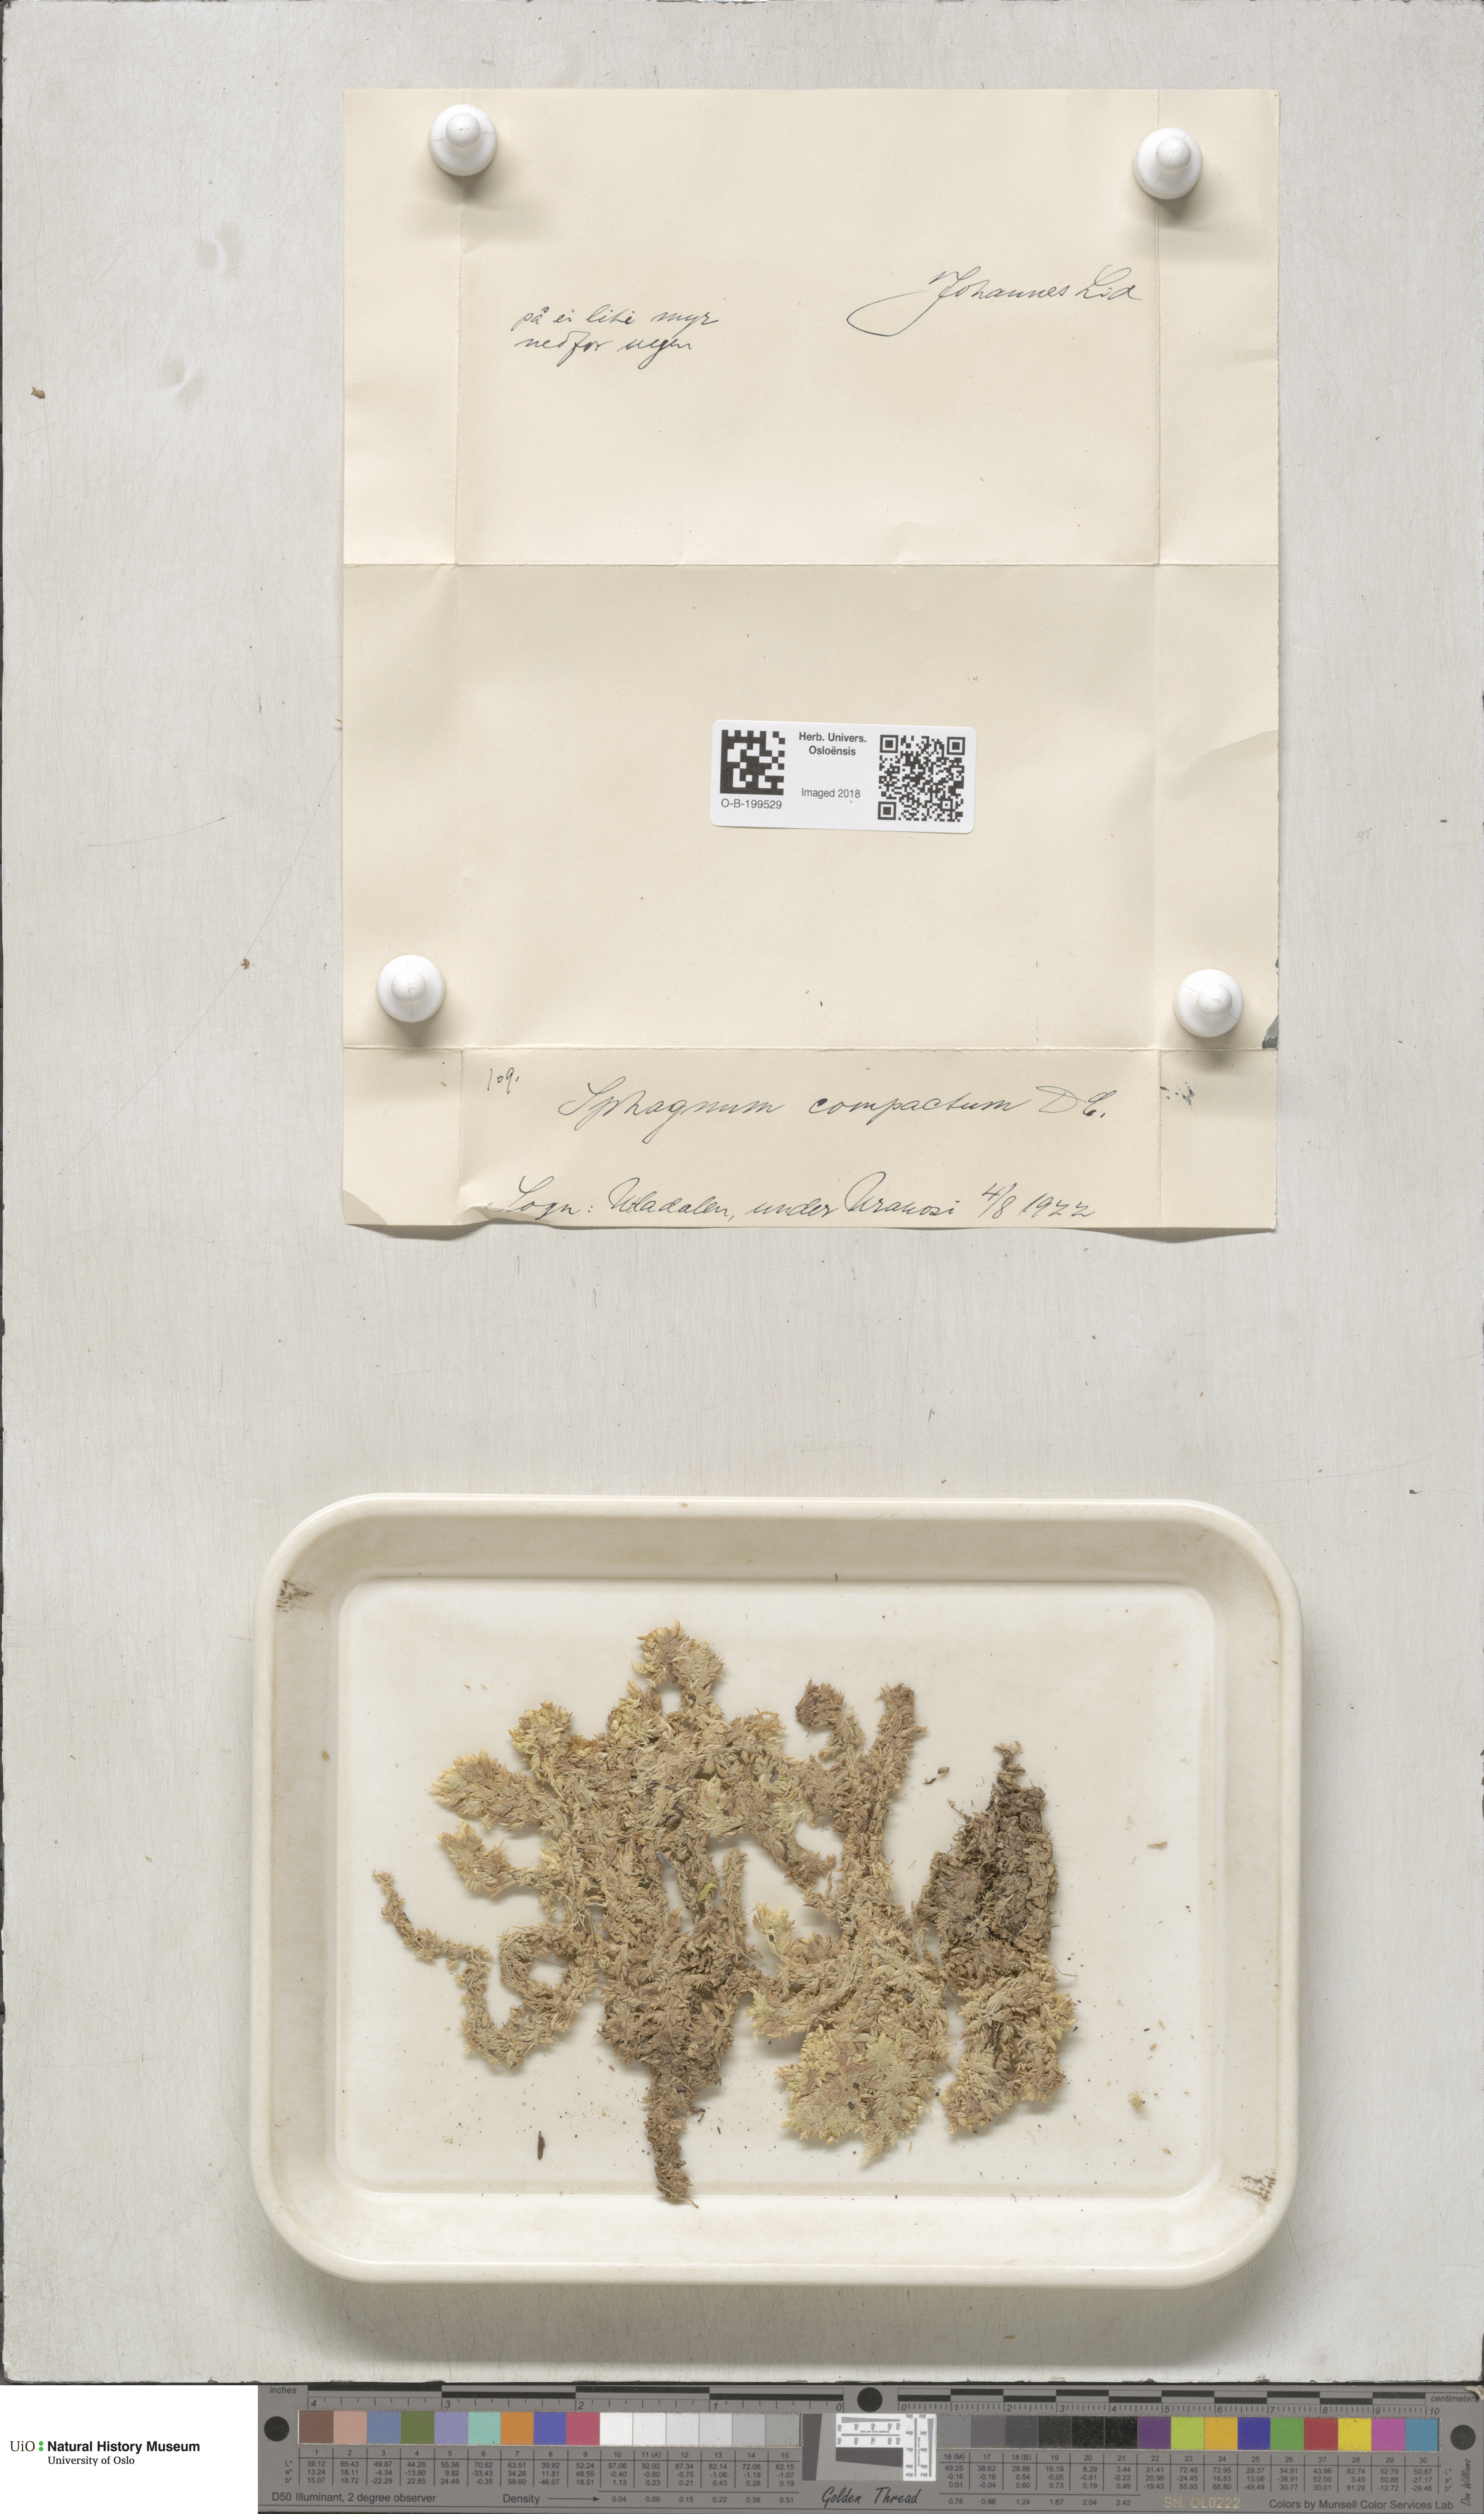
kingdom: Plantae
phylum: Bryophyta
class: Sphagnopsida
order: Sphagnales
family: Sphagnaceae
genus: Sphagnum
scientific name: Sphagnum compactum
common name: Compact peat moss
